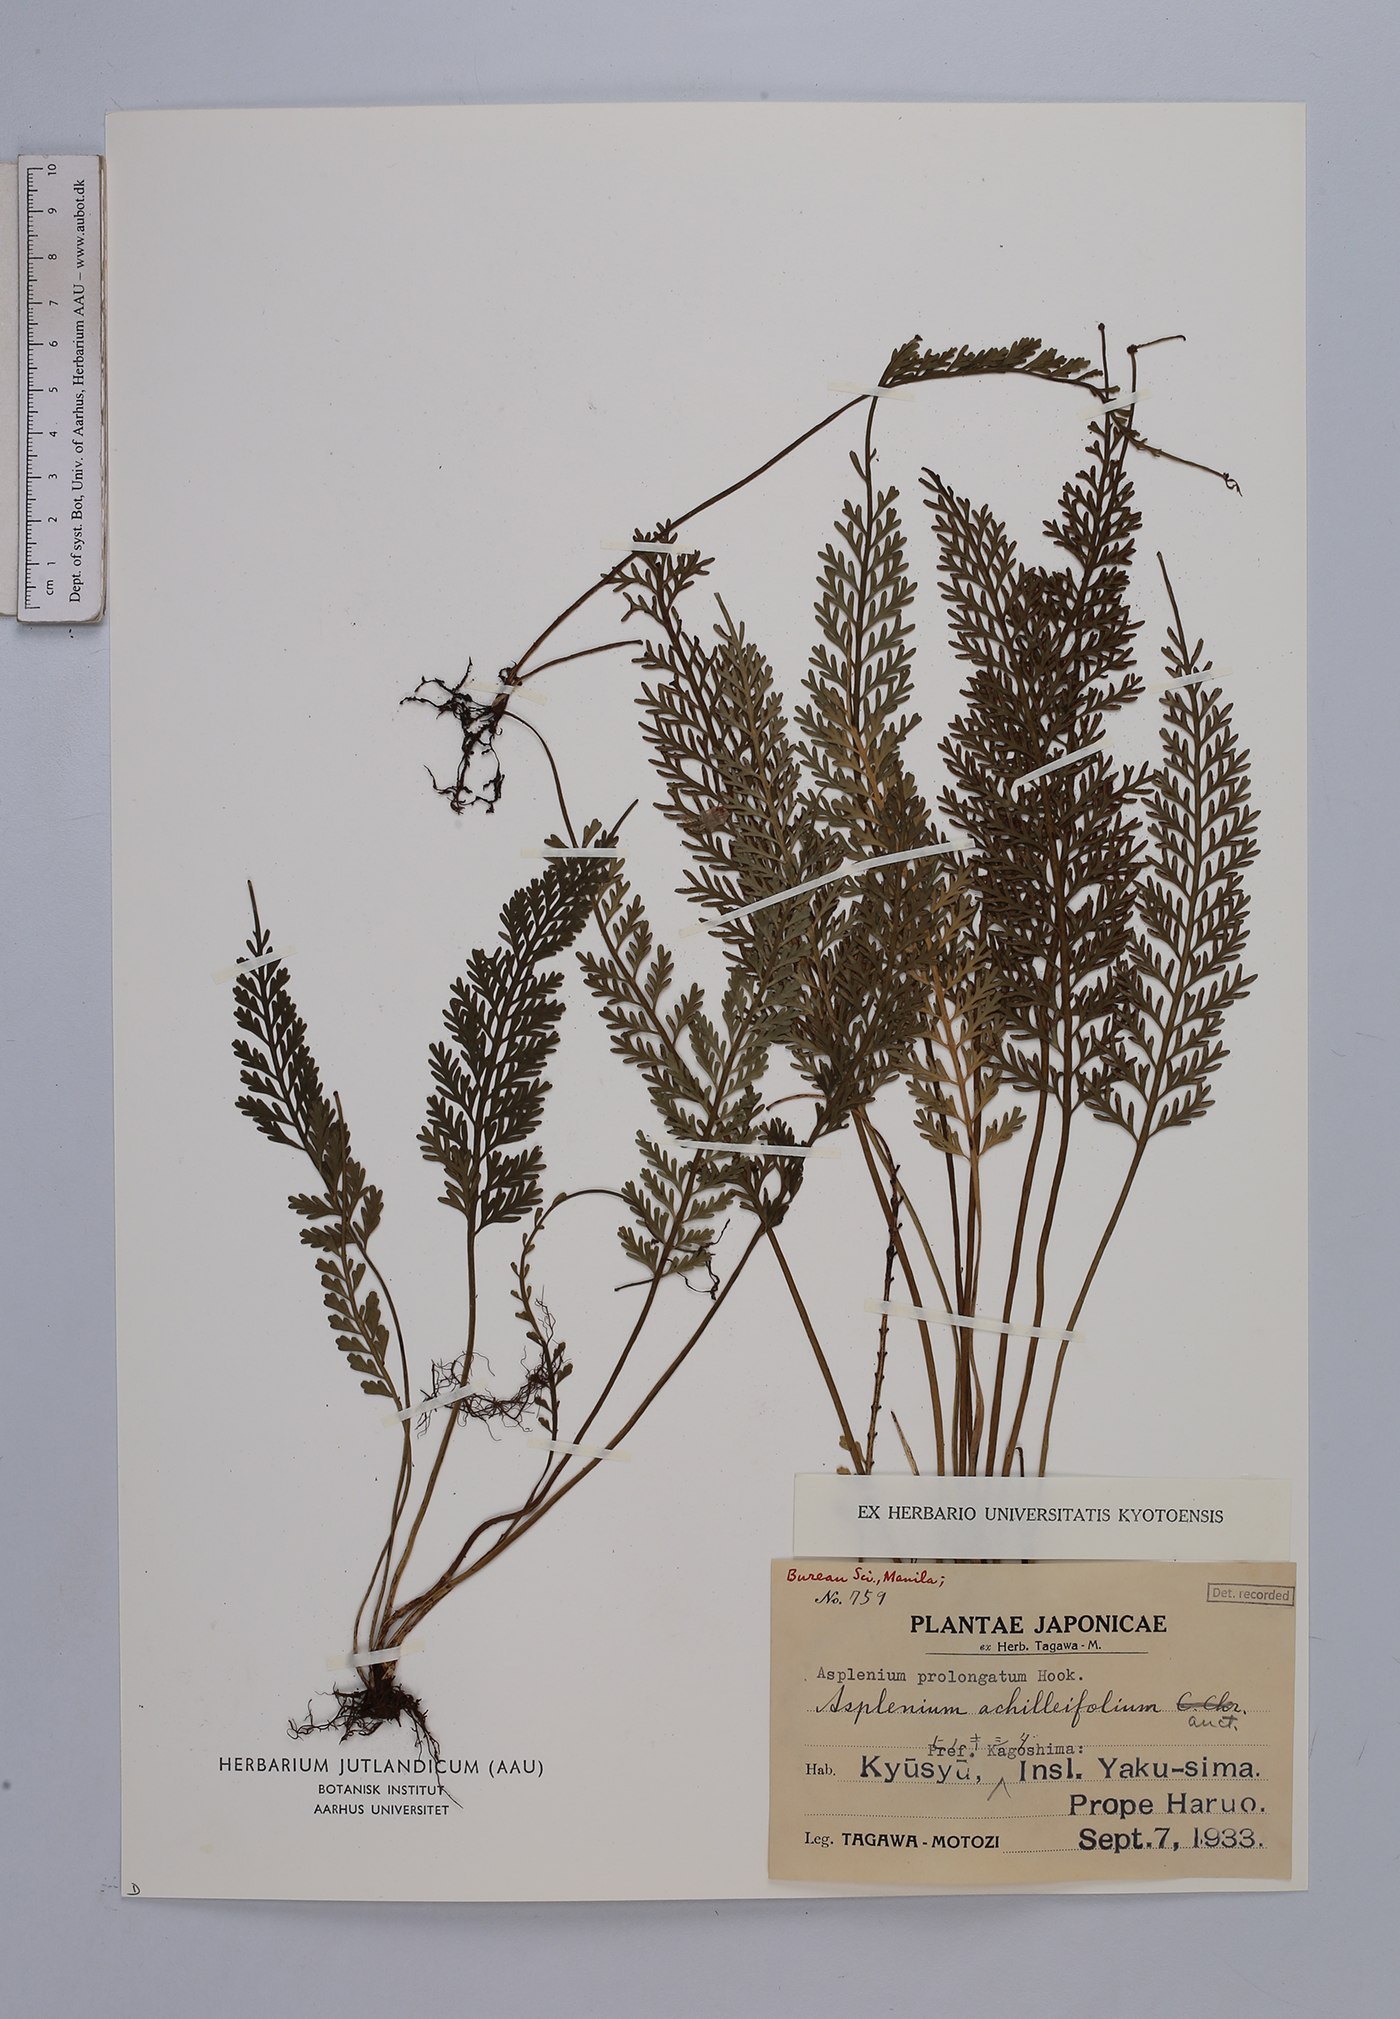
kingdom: Plantae
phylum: Tracheophyta
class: Polypodiopsida
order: Polypodiales
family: Aspleniaceae
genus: Asplenium
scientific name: Asplenium prolongatum
